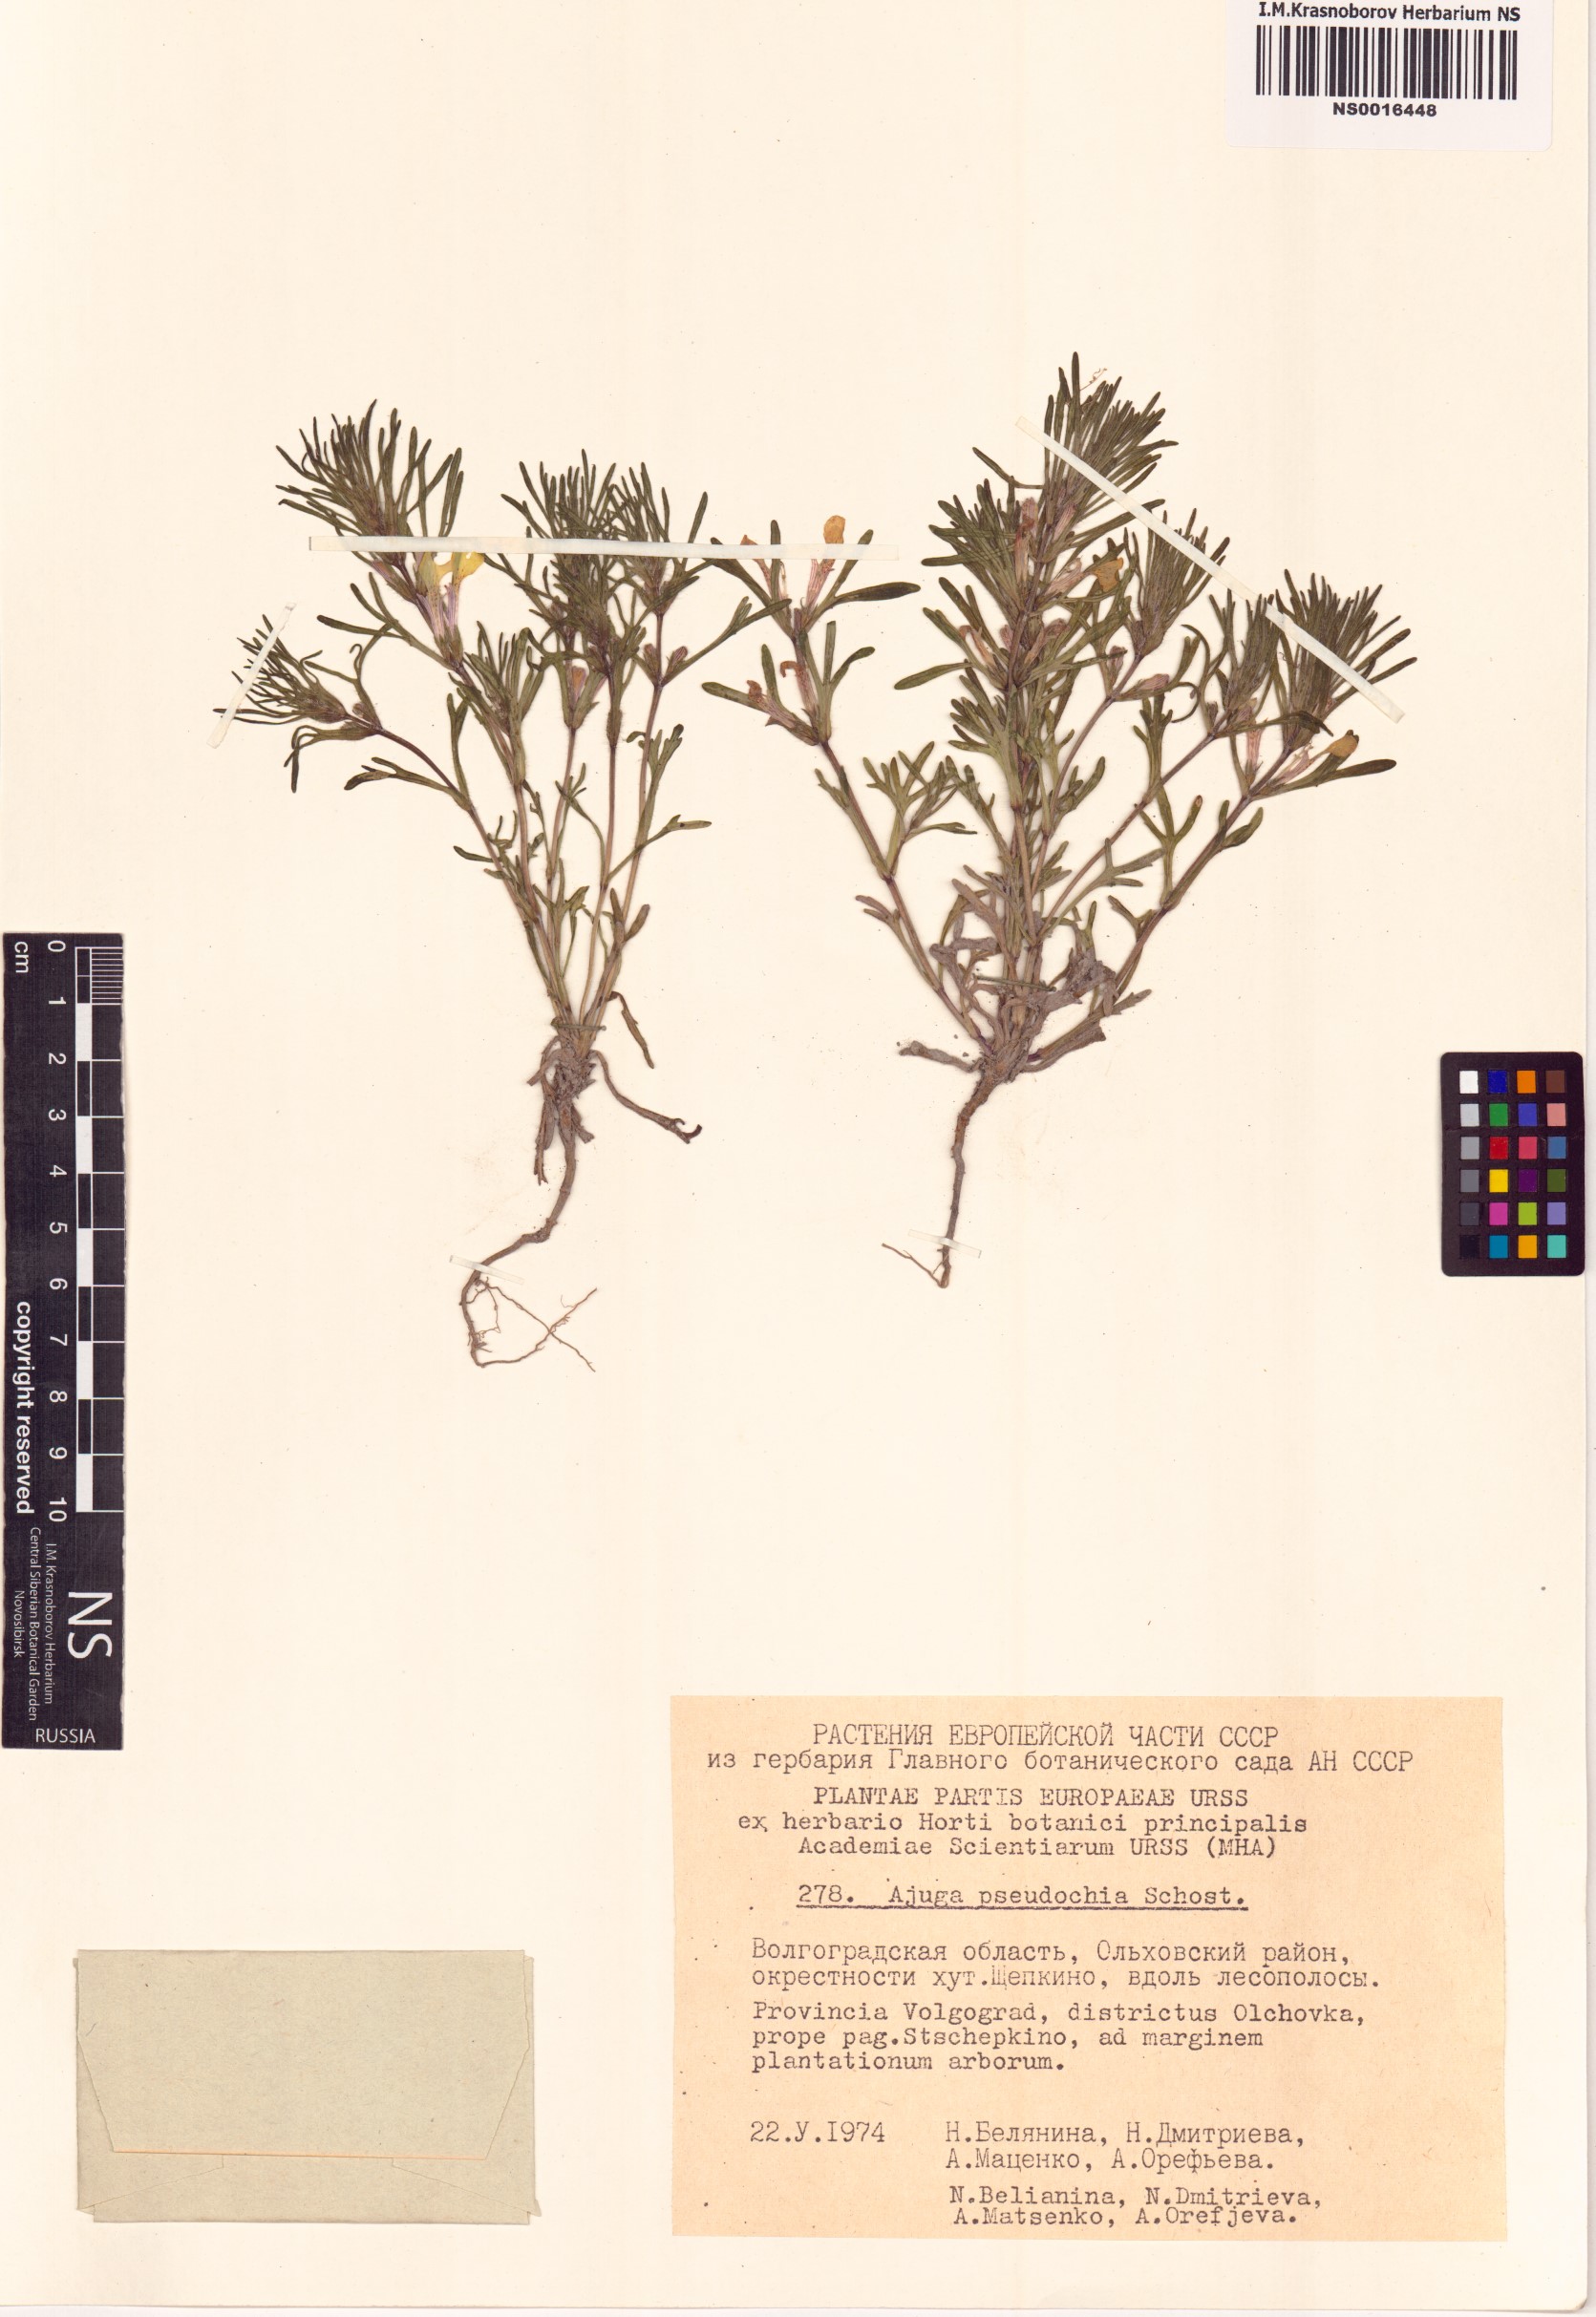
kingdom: Plantae
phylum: Tracheophyta
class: Magnoliopsida
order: Lamiales
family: Lamiaceae
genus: Ajuga
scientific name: Ajuga chamaepitys
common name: Ground-pine
